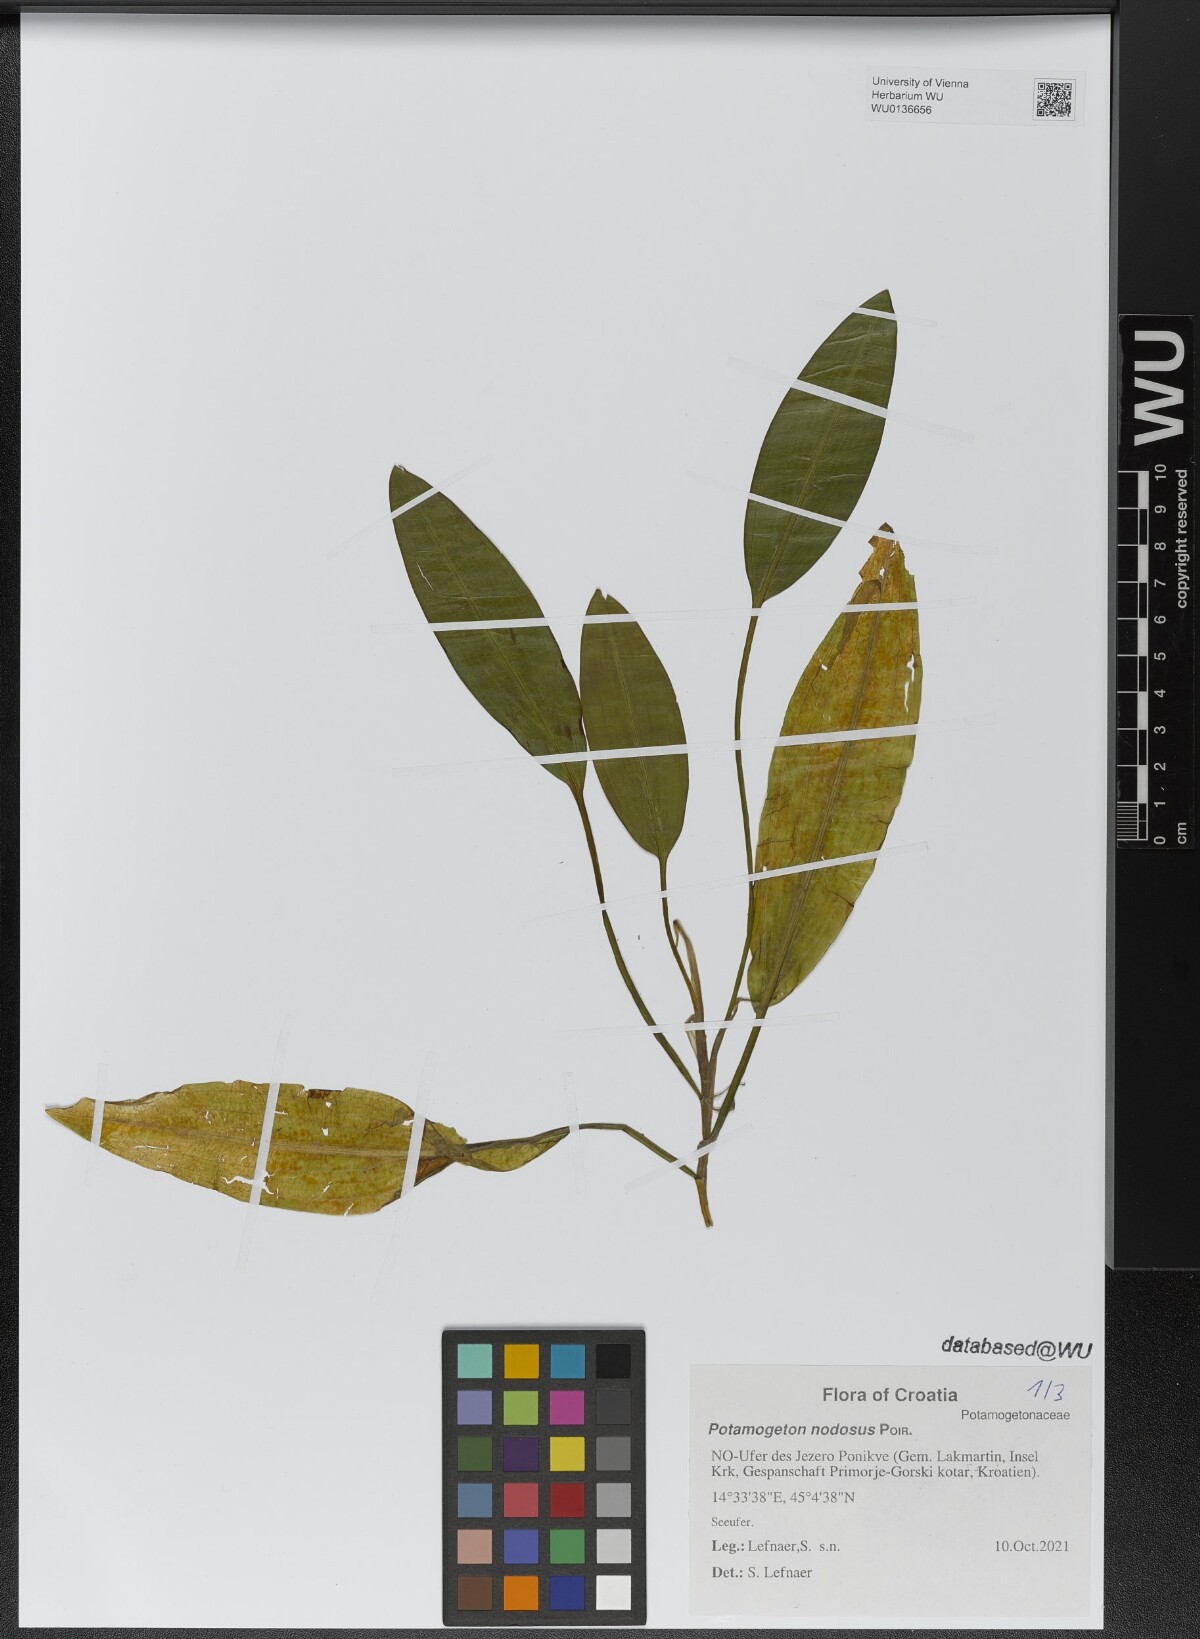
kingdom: Plantae
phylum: Tracheophyta
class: Liliopsida
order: Alismatales
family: Potamogetonaceae
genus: Potamogeton
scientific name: Potamogeton nodosus
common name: Loddon pondweed
